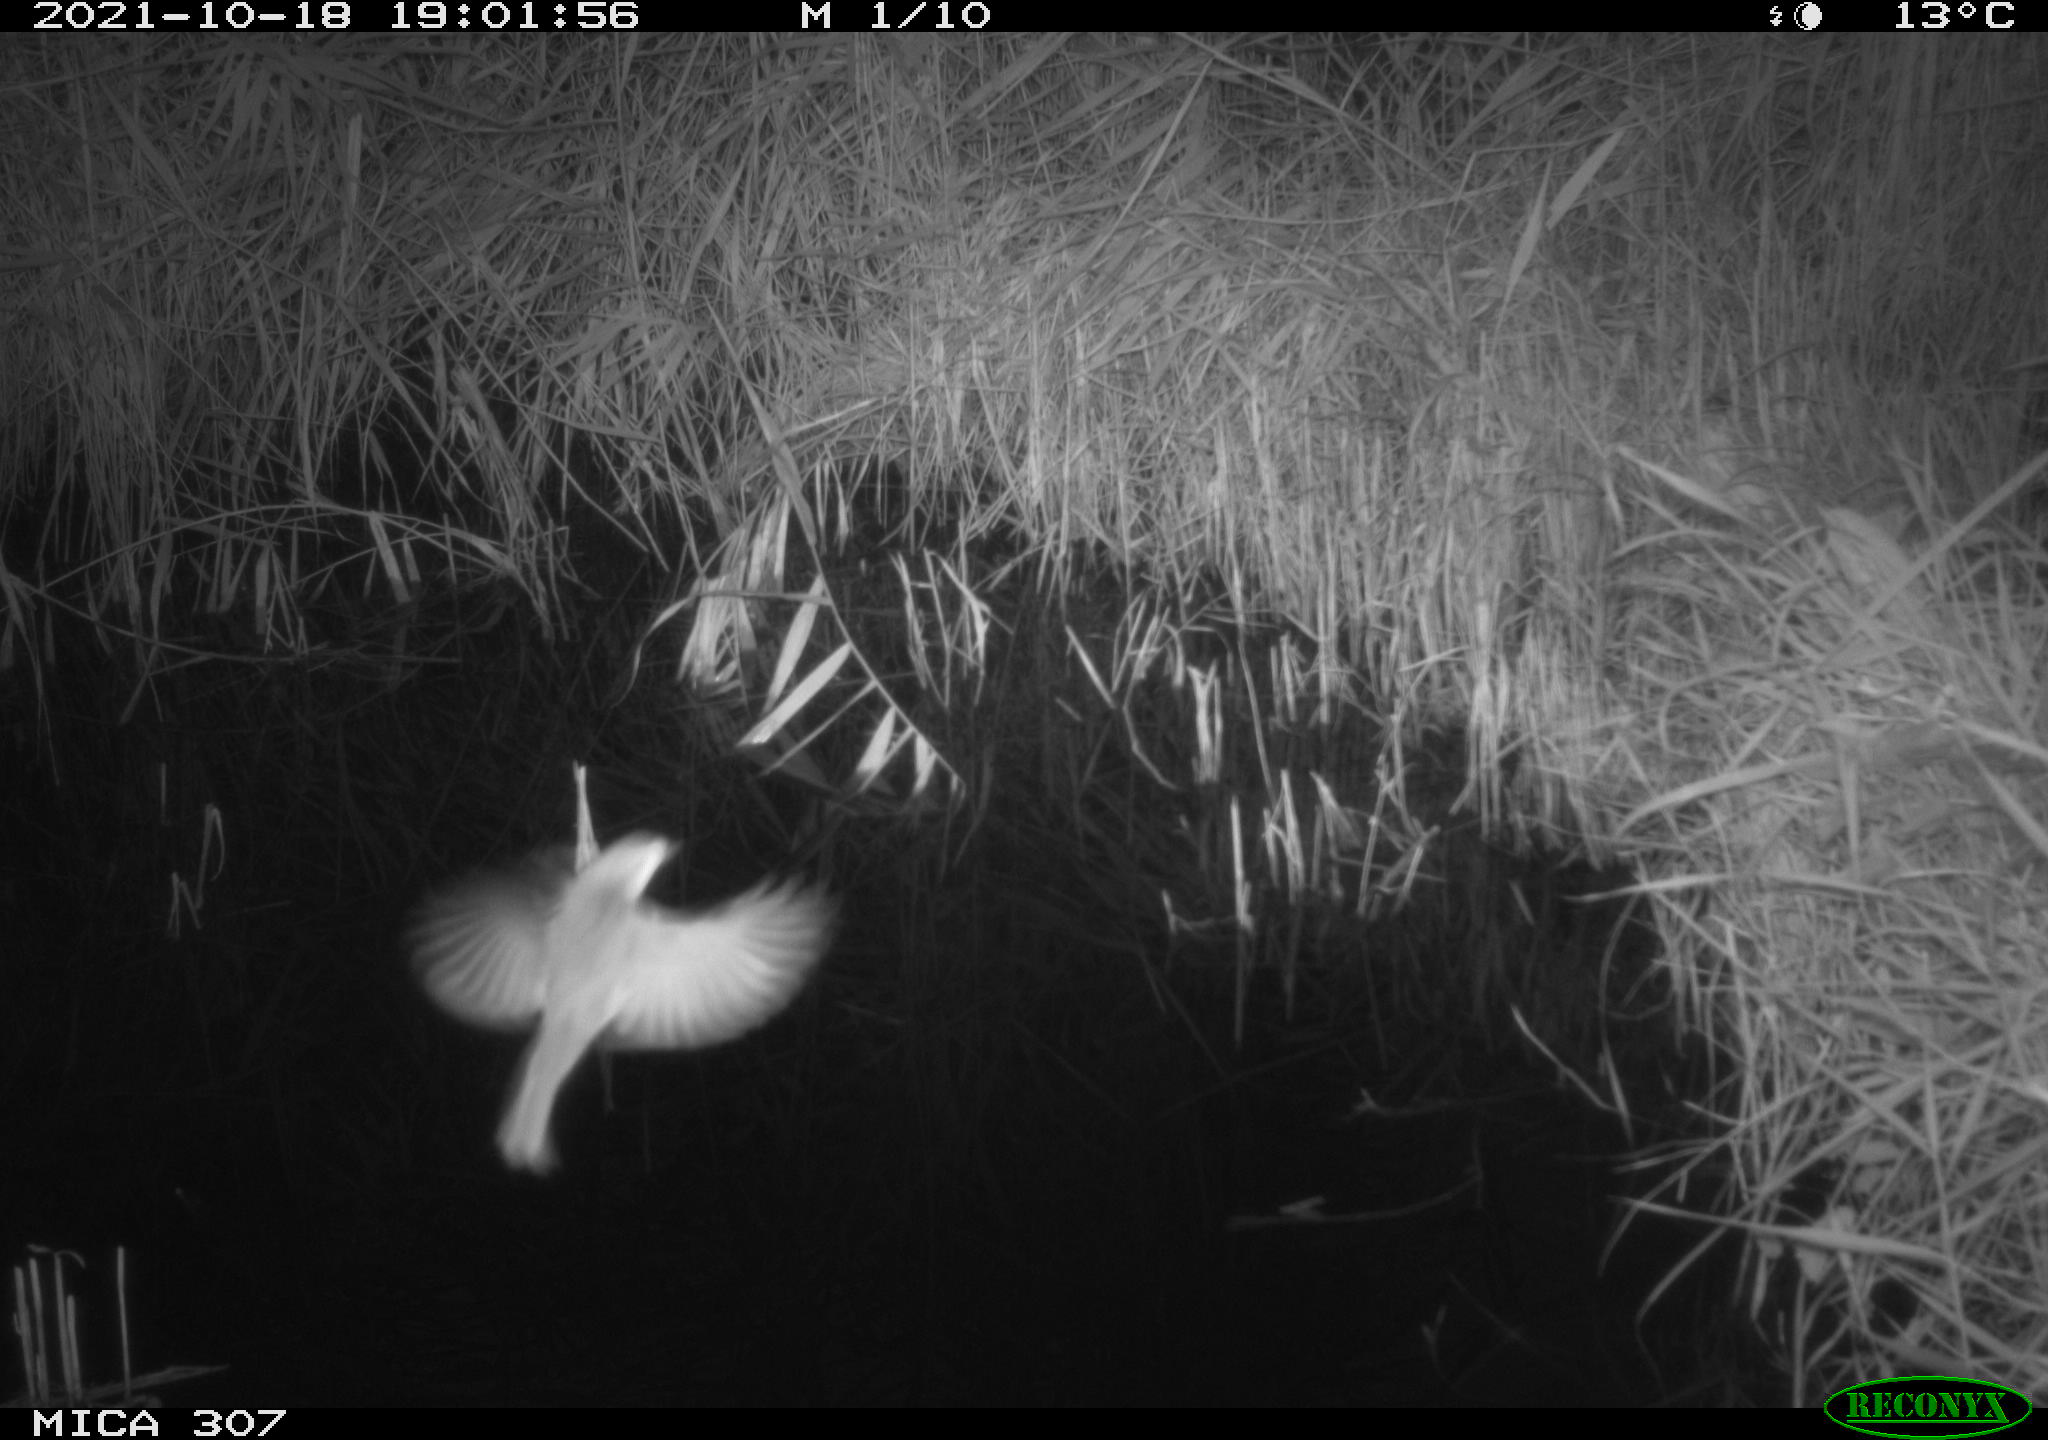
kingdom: Animalia
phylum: Chordata
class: Aves
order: Passeriformes
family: Acrocephalidae
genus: Acrocephalus
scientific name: Acrocephalus scirpaceus
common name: Eurasian reed warbler
